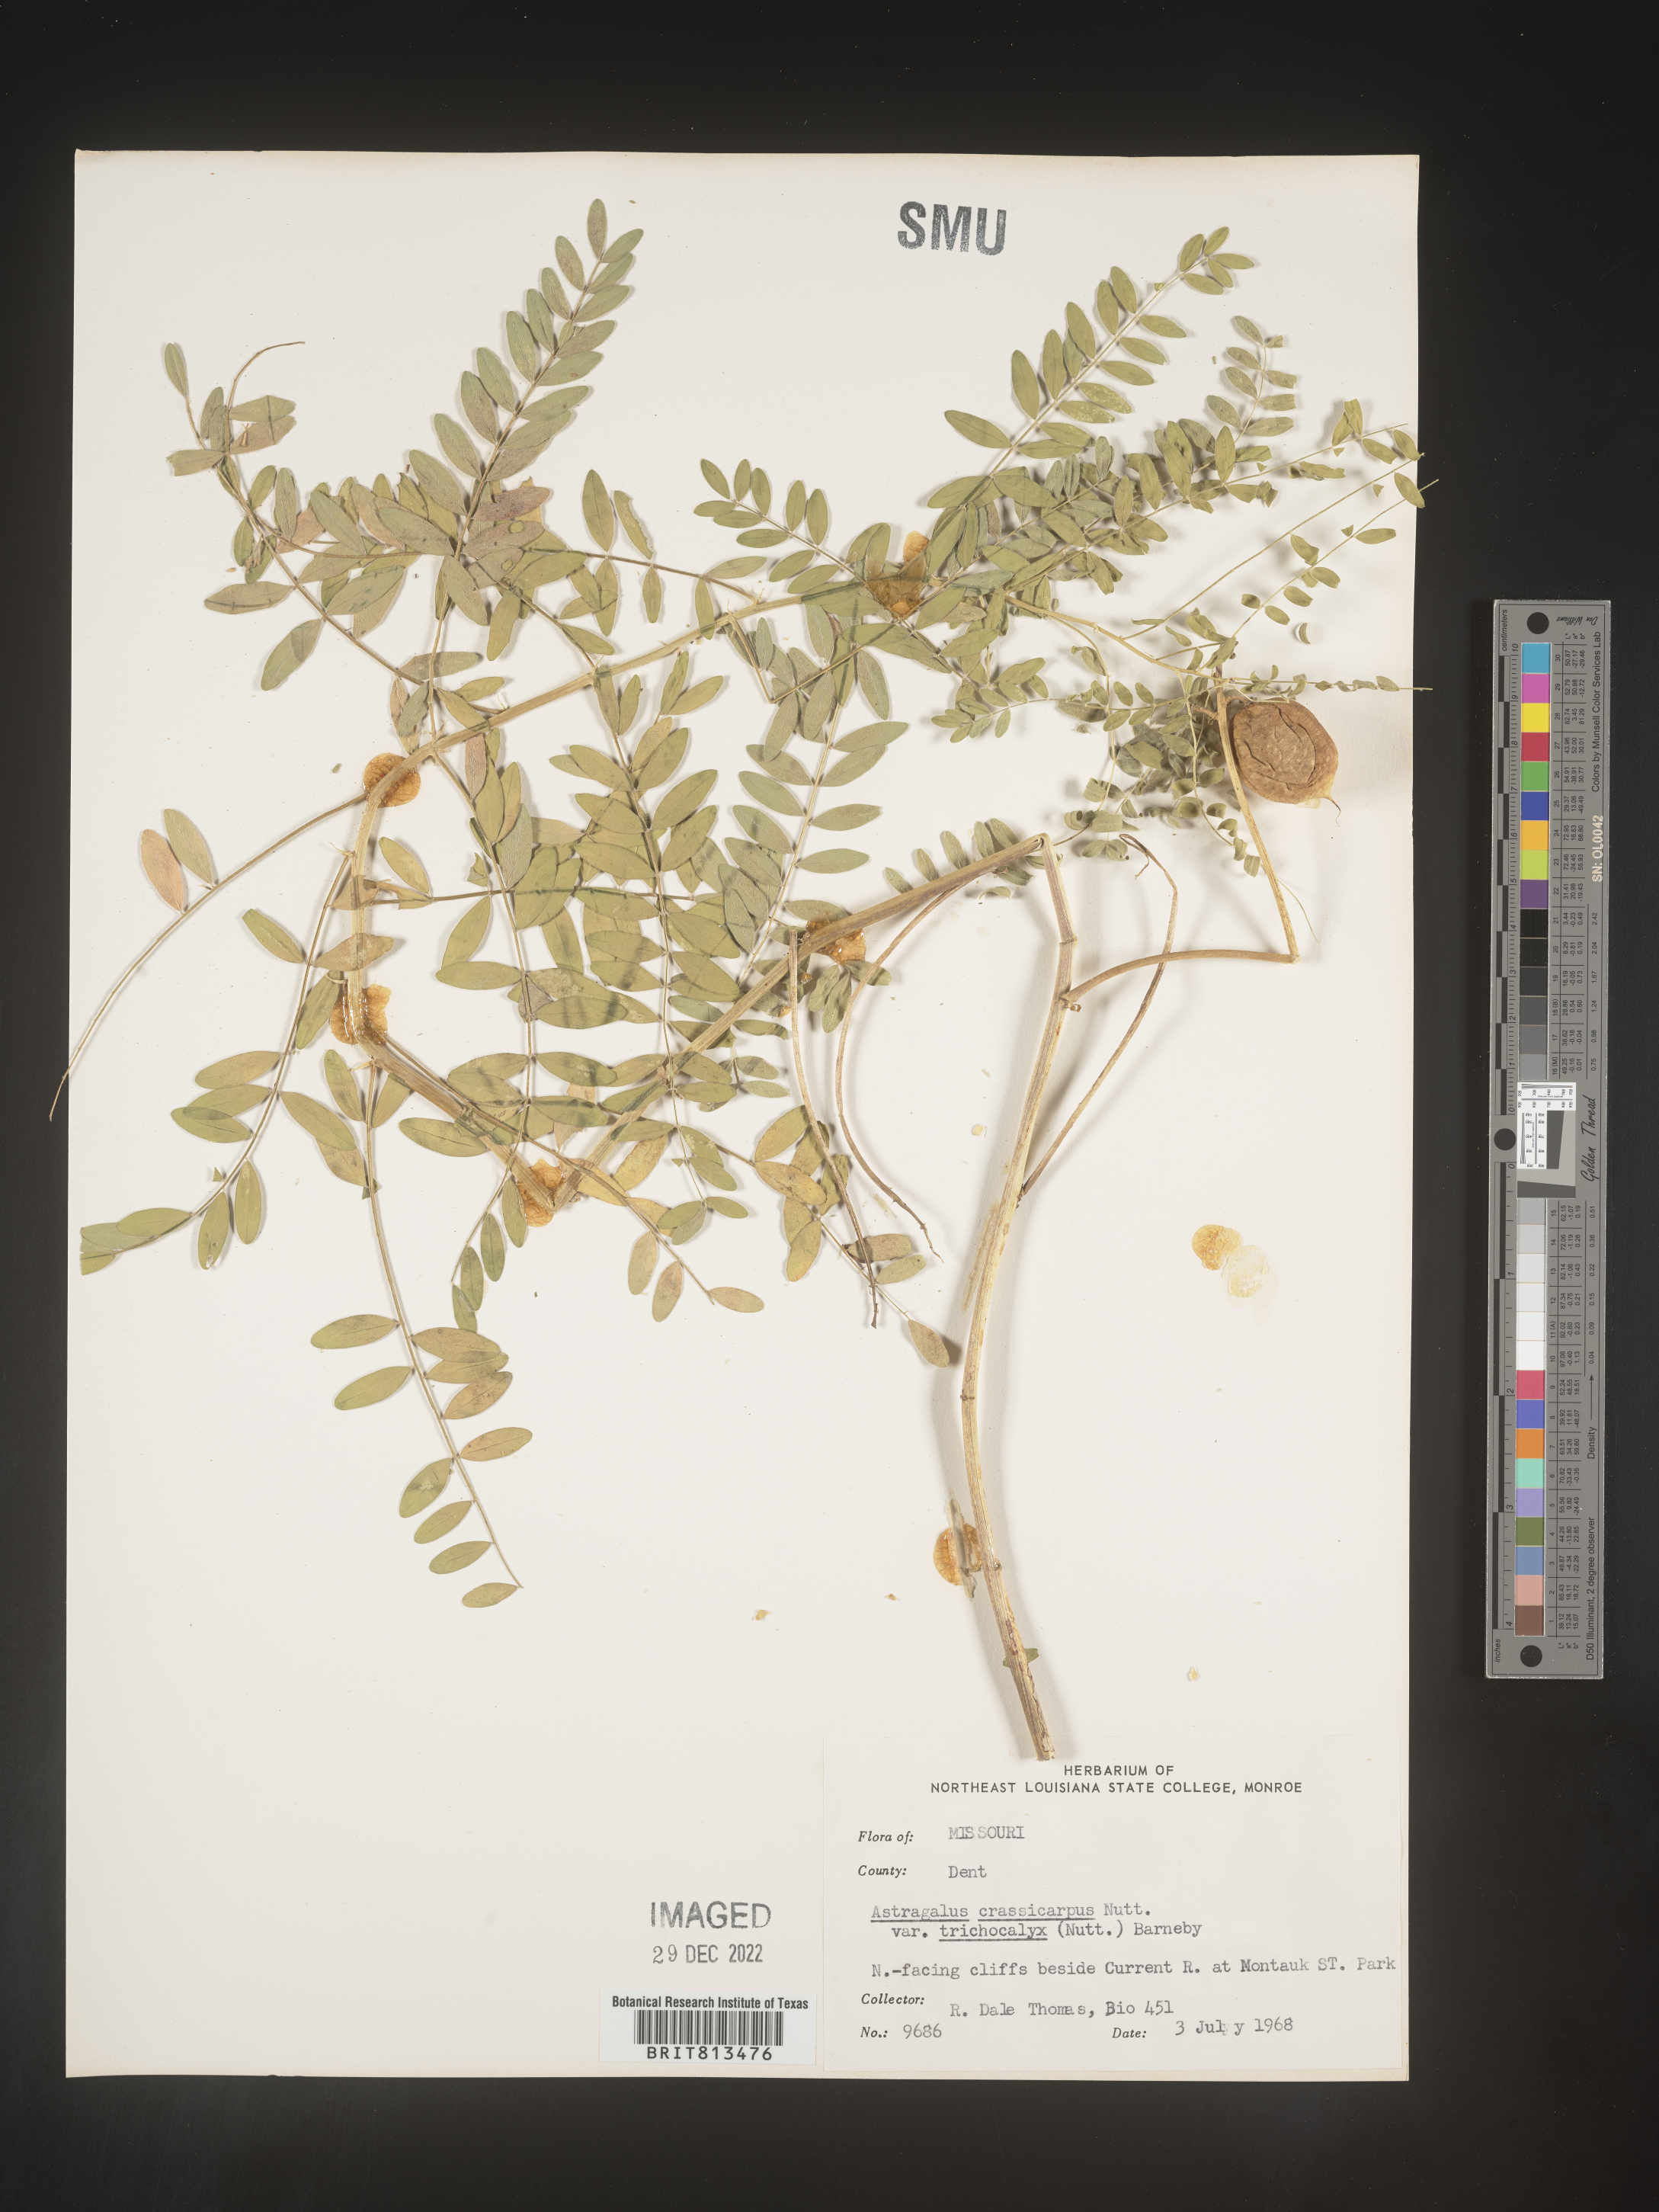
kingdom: Plantae
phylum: Tracheophyta
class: Magnoliopsida
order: Fabales
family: Fabaceae
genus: Astragalus
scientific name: Astragalus
